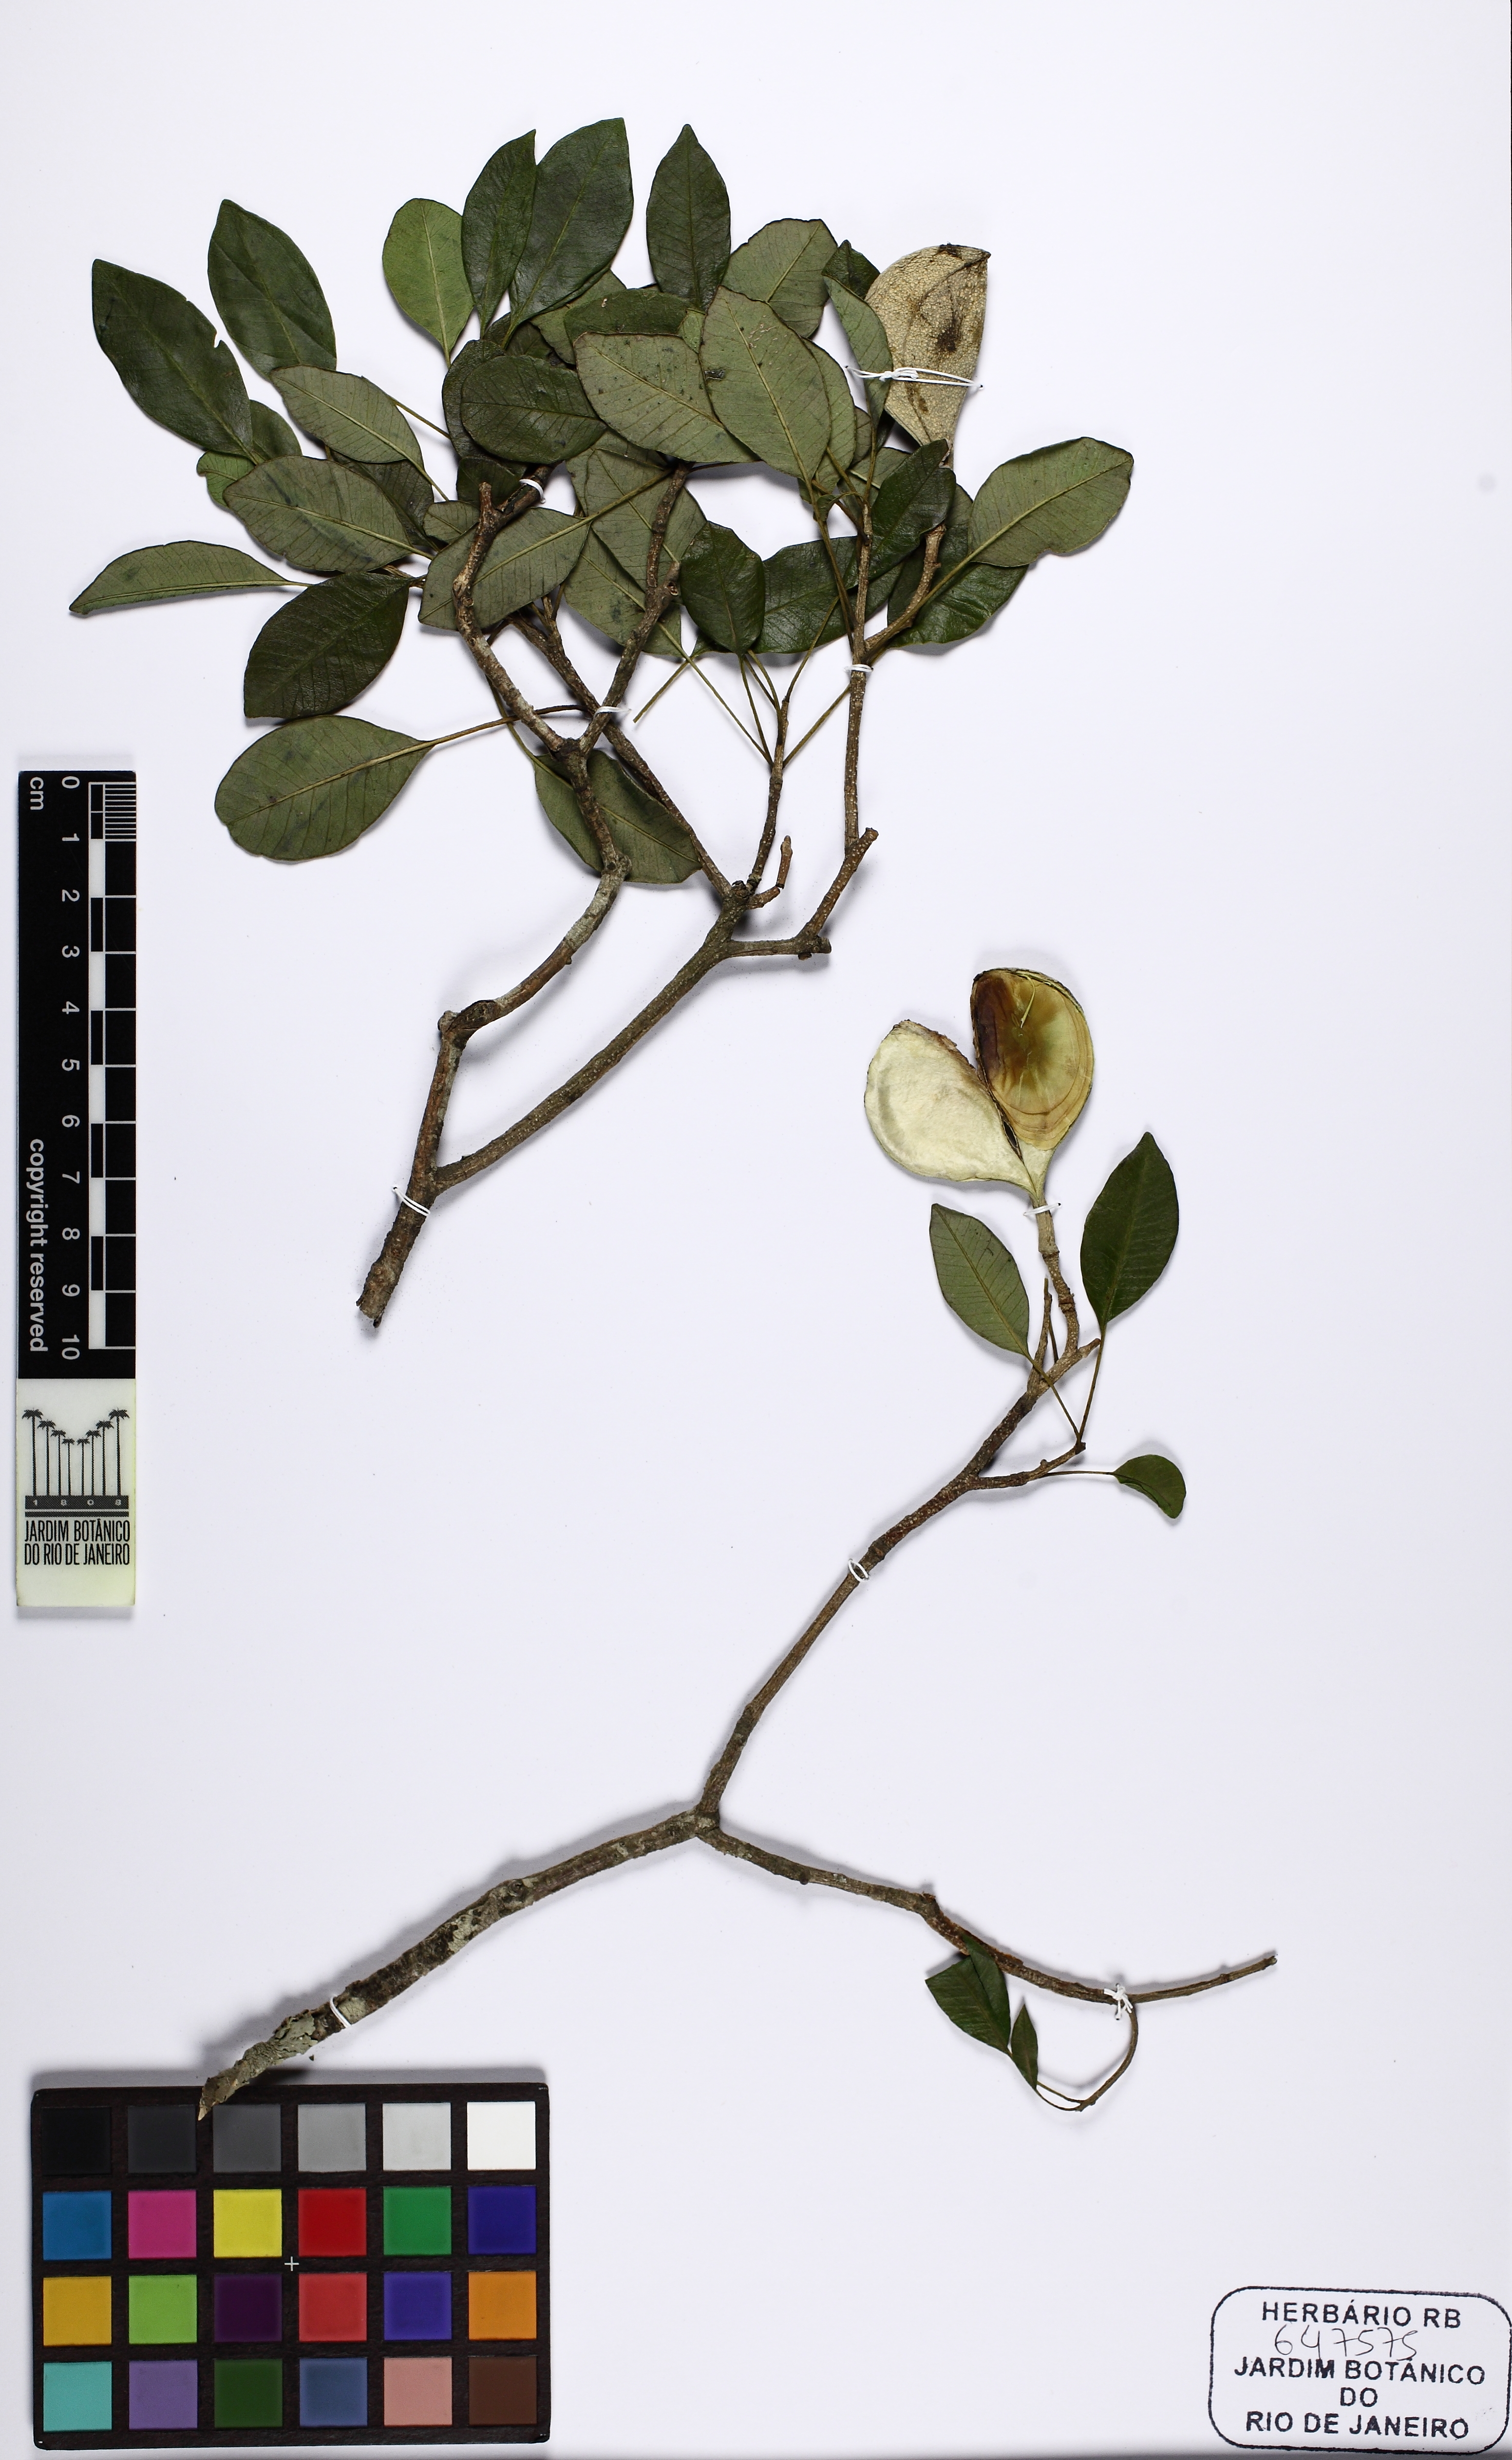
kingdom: Plantae
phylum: Tracheophyta
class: Magnoliopsida
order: Gentianales
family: Apocynaceae
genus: Aspidosperma
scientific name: Aspidosperma pyrifolium
